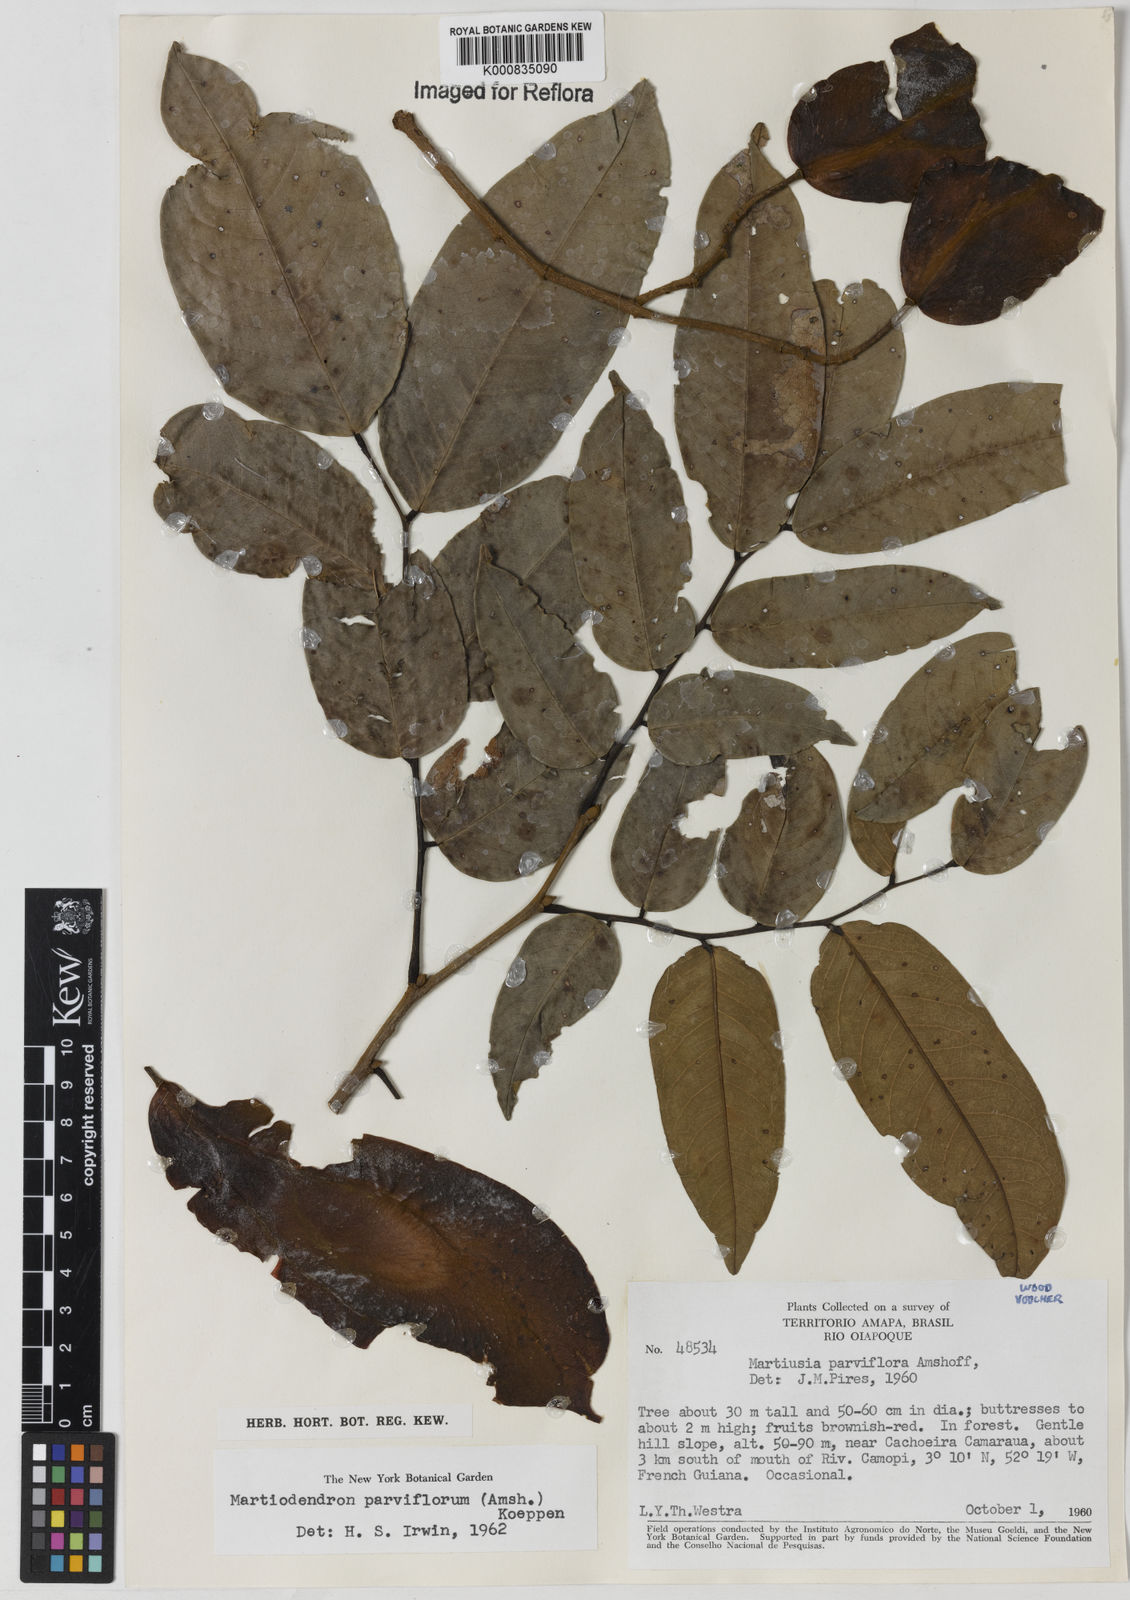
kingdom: Plantae
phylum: Tracheophyta
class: Magnoliopsida
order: Fabales
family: Fabaceae
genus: Clitoria
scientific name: Clitoria
